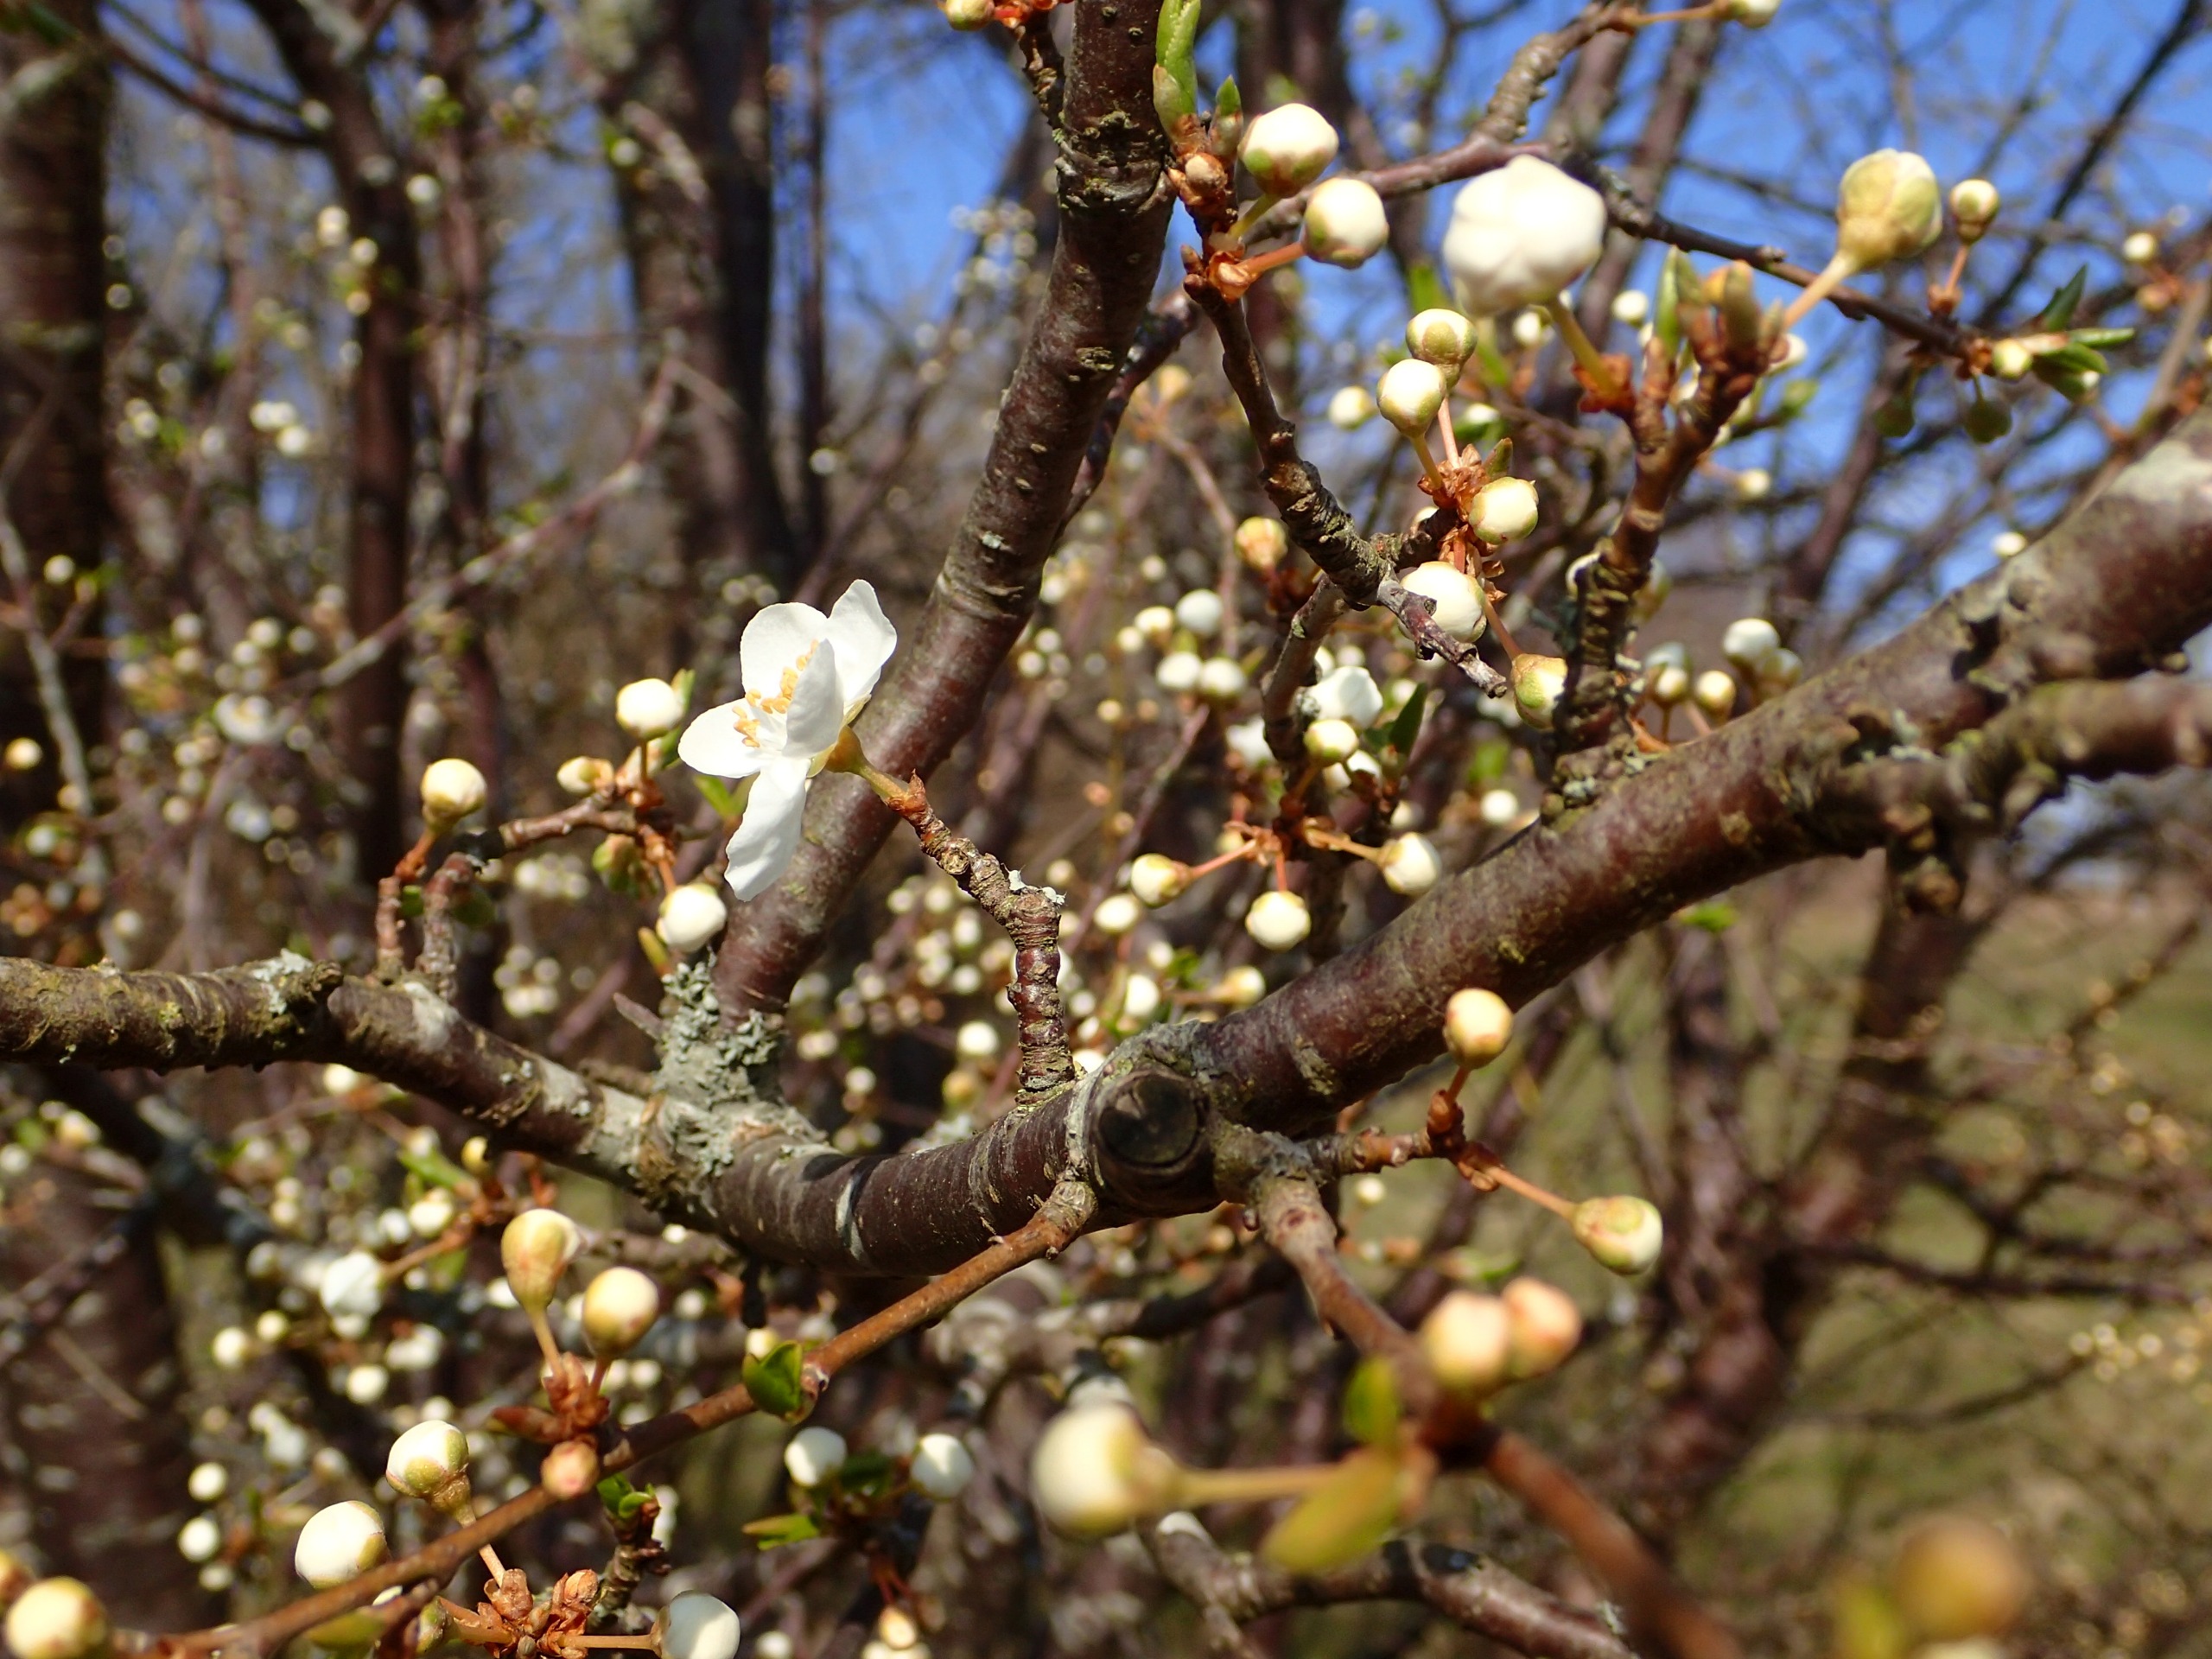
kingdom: Plantae
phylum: Tracheophyta
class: Magnoliopsida
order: Rosales
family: Rosaceae
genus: Prunus
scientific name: Prunus cerasifera
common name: Mirabel
